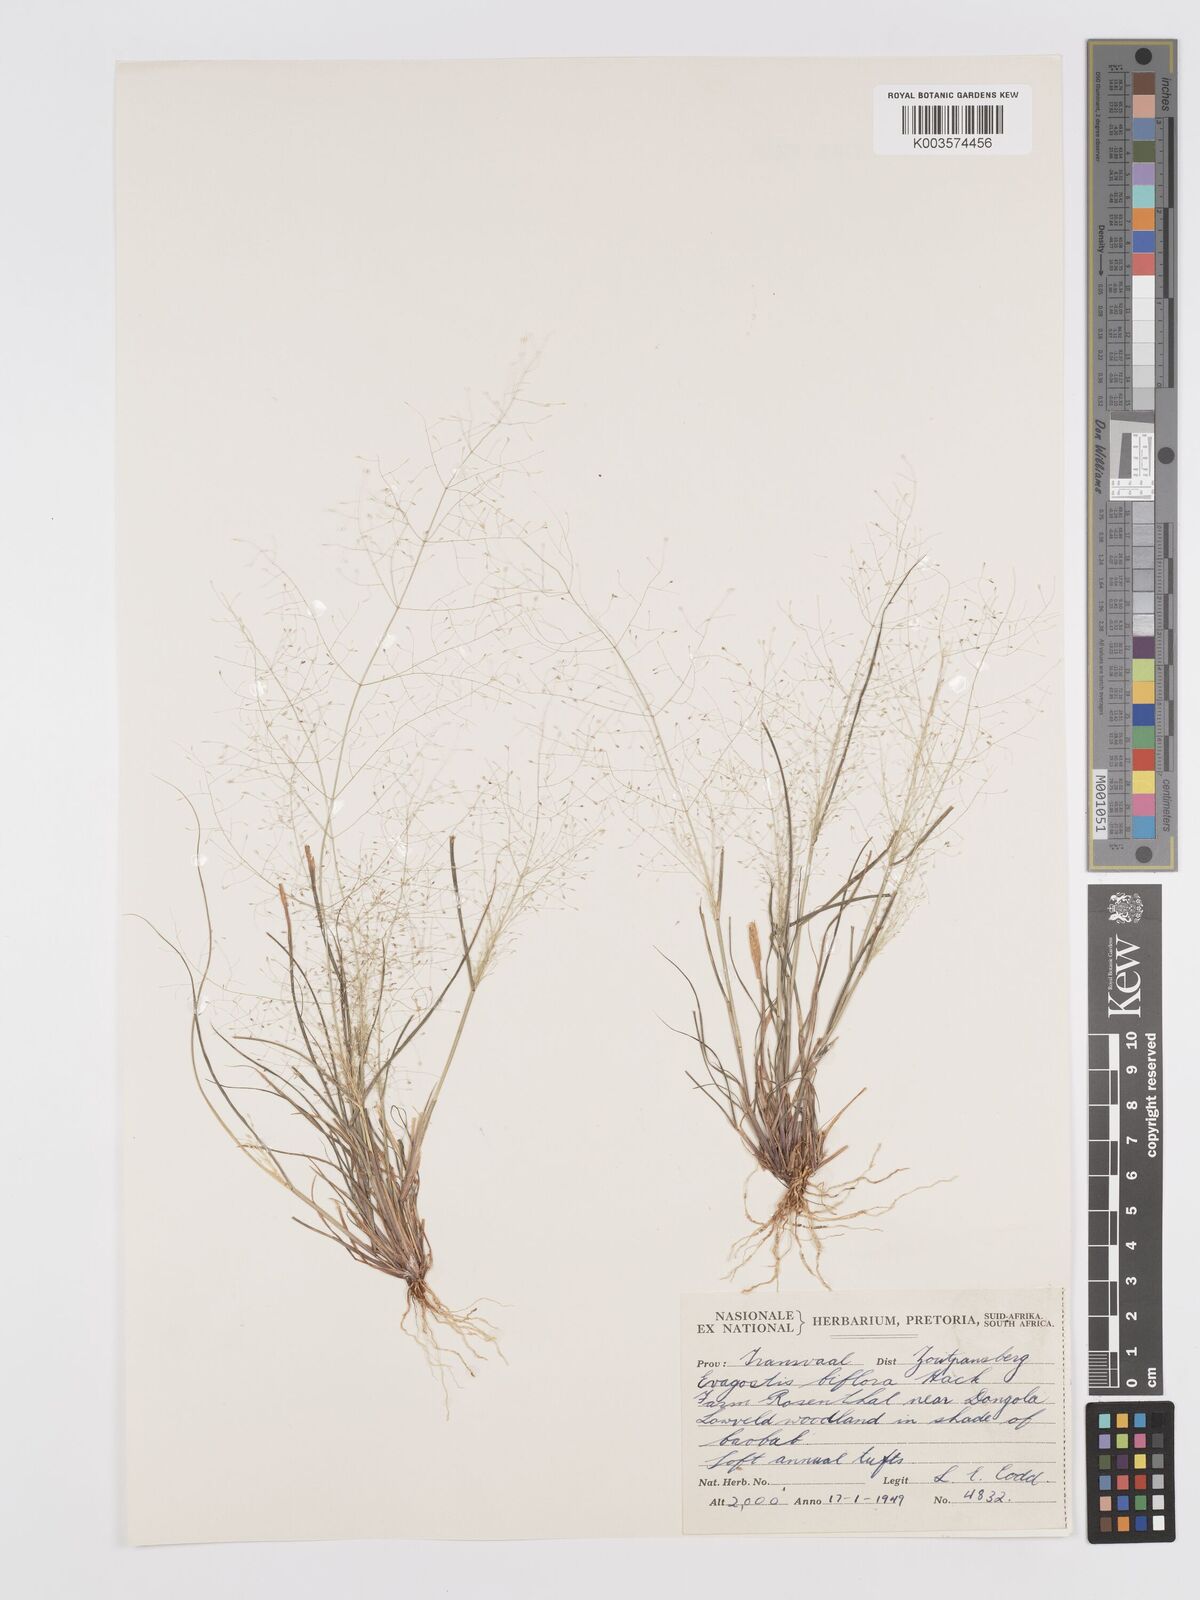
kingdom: Plantae
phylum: Tracheophyta
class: Liliopsida
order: Poales
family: Poaceae
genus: Eragrostis
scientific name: Eragrostis biflora
